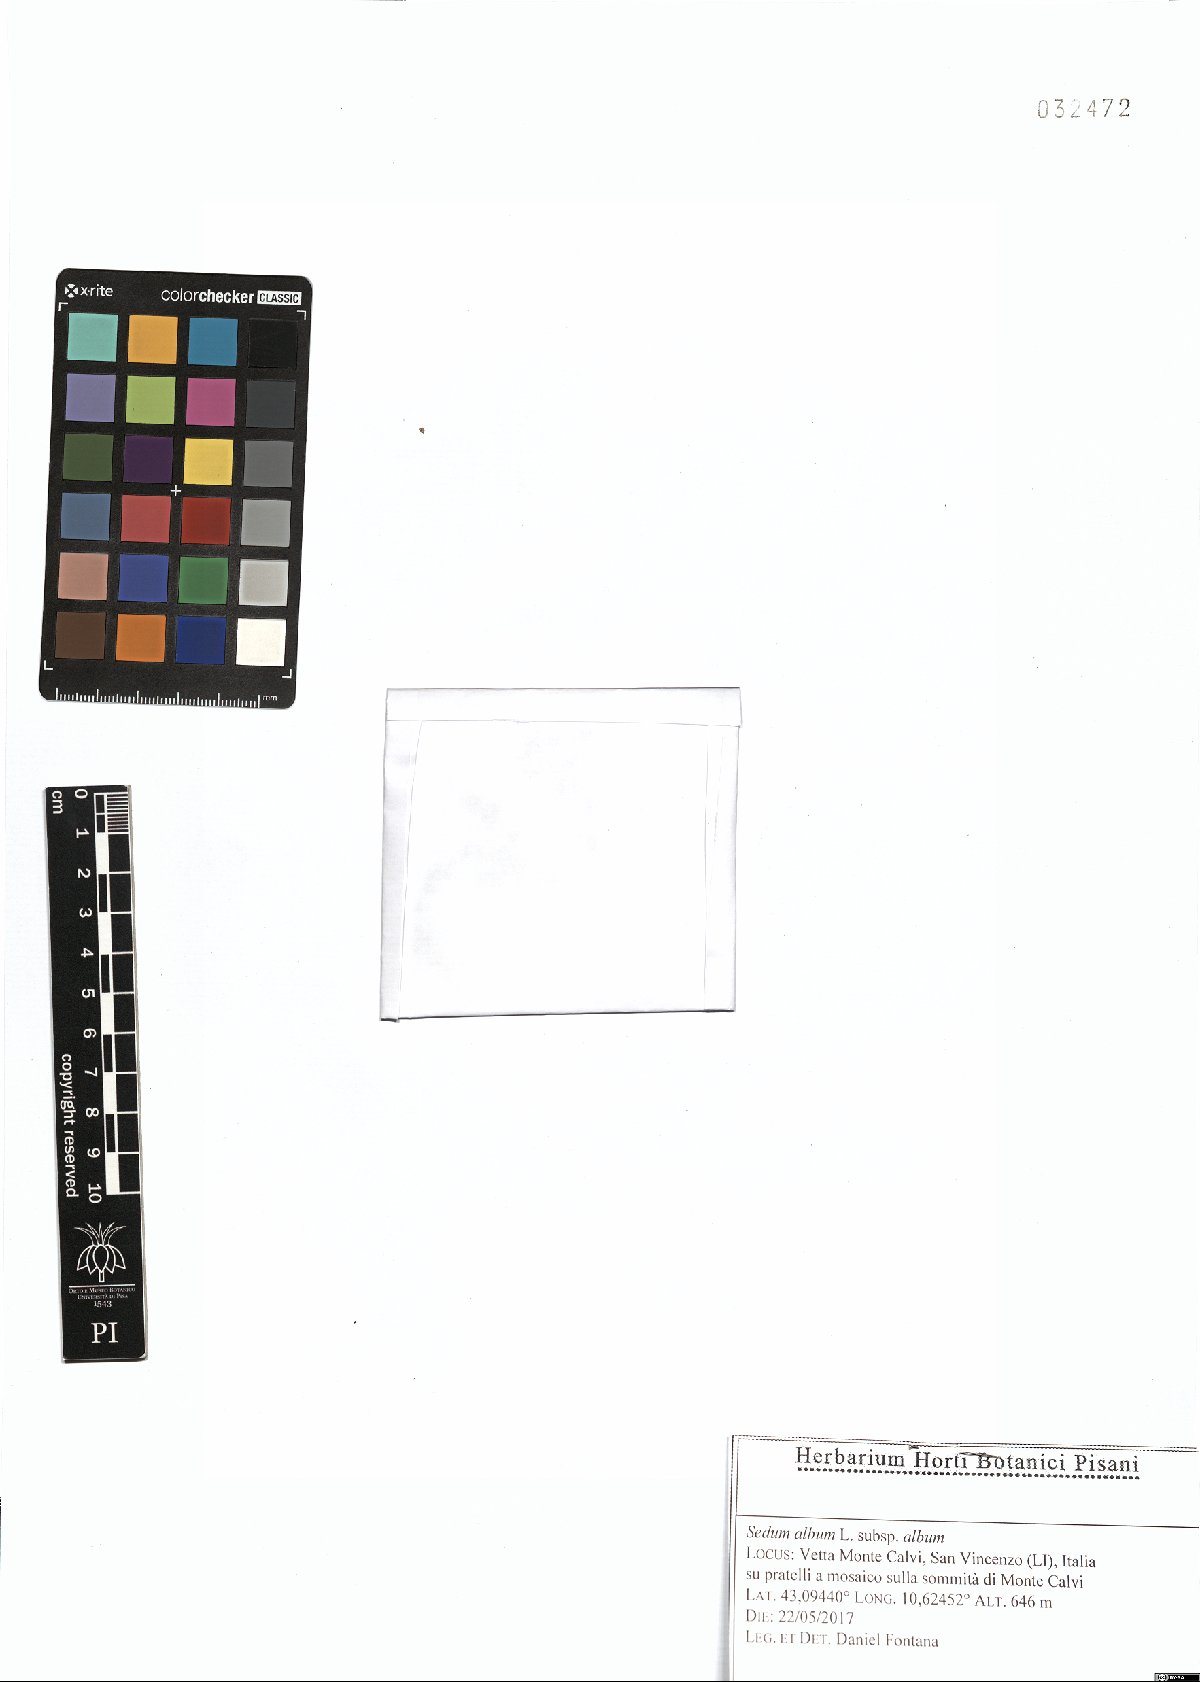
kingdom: Plantae
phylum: Tracheophyta
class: Magnoliopsida
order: Saxifragales
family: Crassulaceae
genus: Sedum
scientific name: Sedum album
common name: White stonecrop
